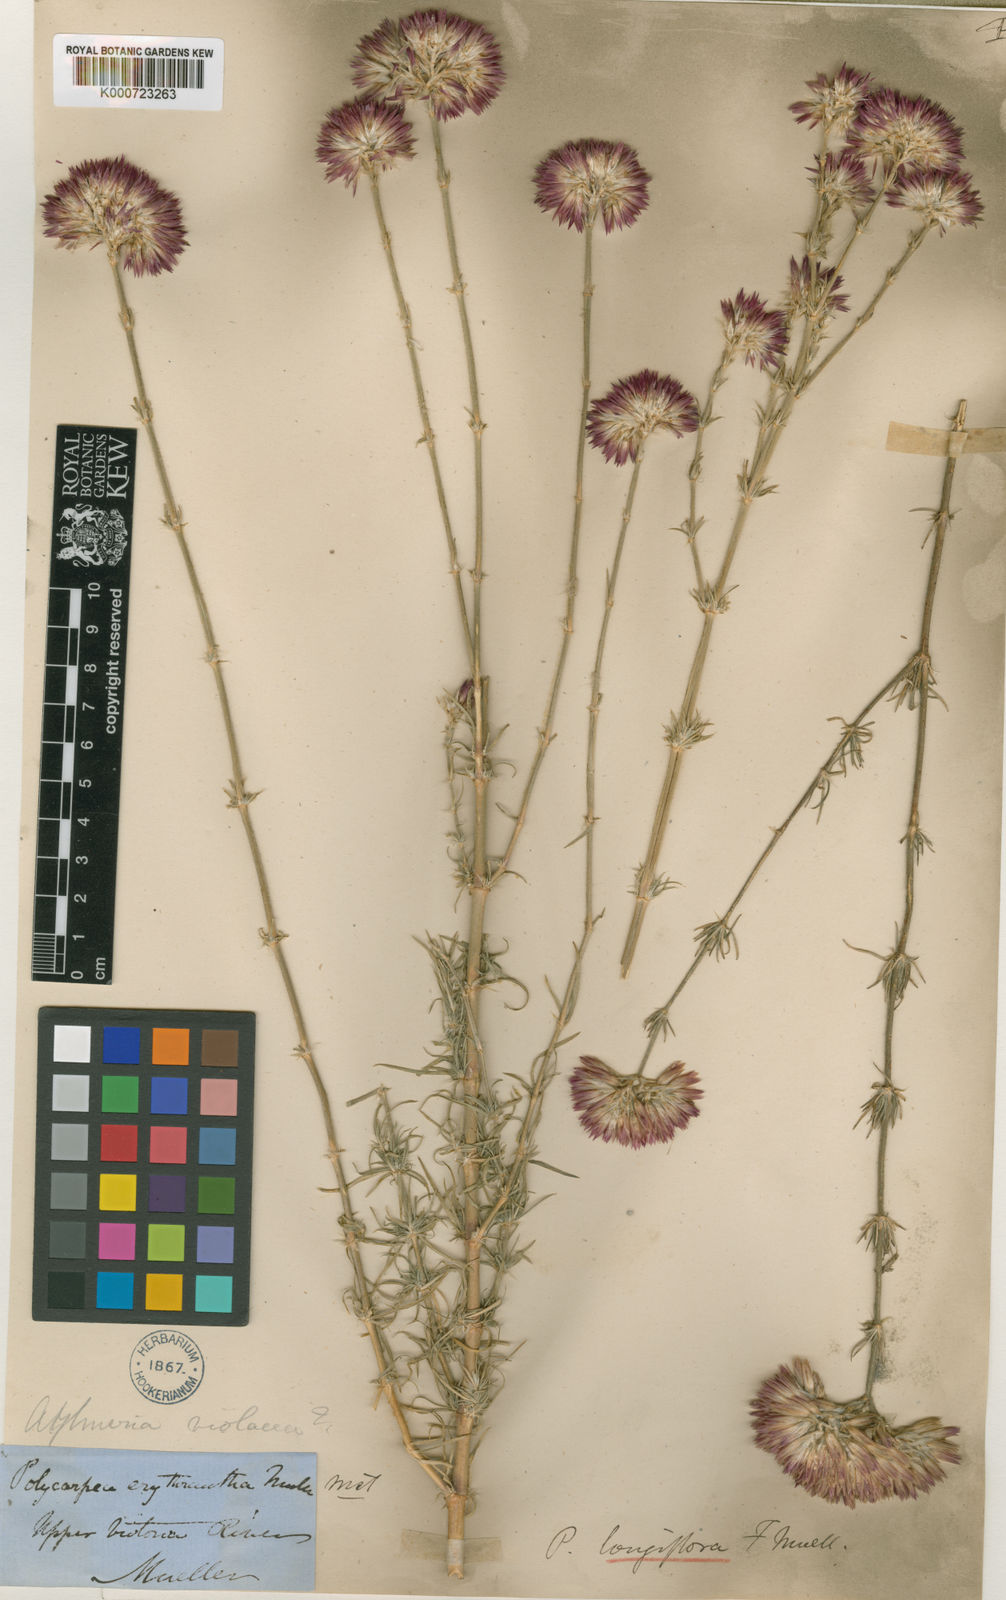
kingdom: Plantae
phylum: Tracheophyta
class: Magnoliopsida
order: Caryophyllales
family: Caryophyllaceae
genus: Polycarpaea
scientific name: Polycarpaea longiflora
